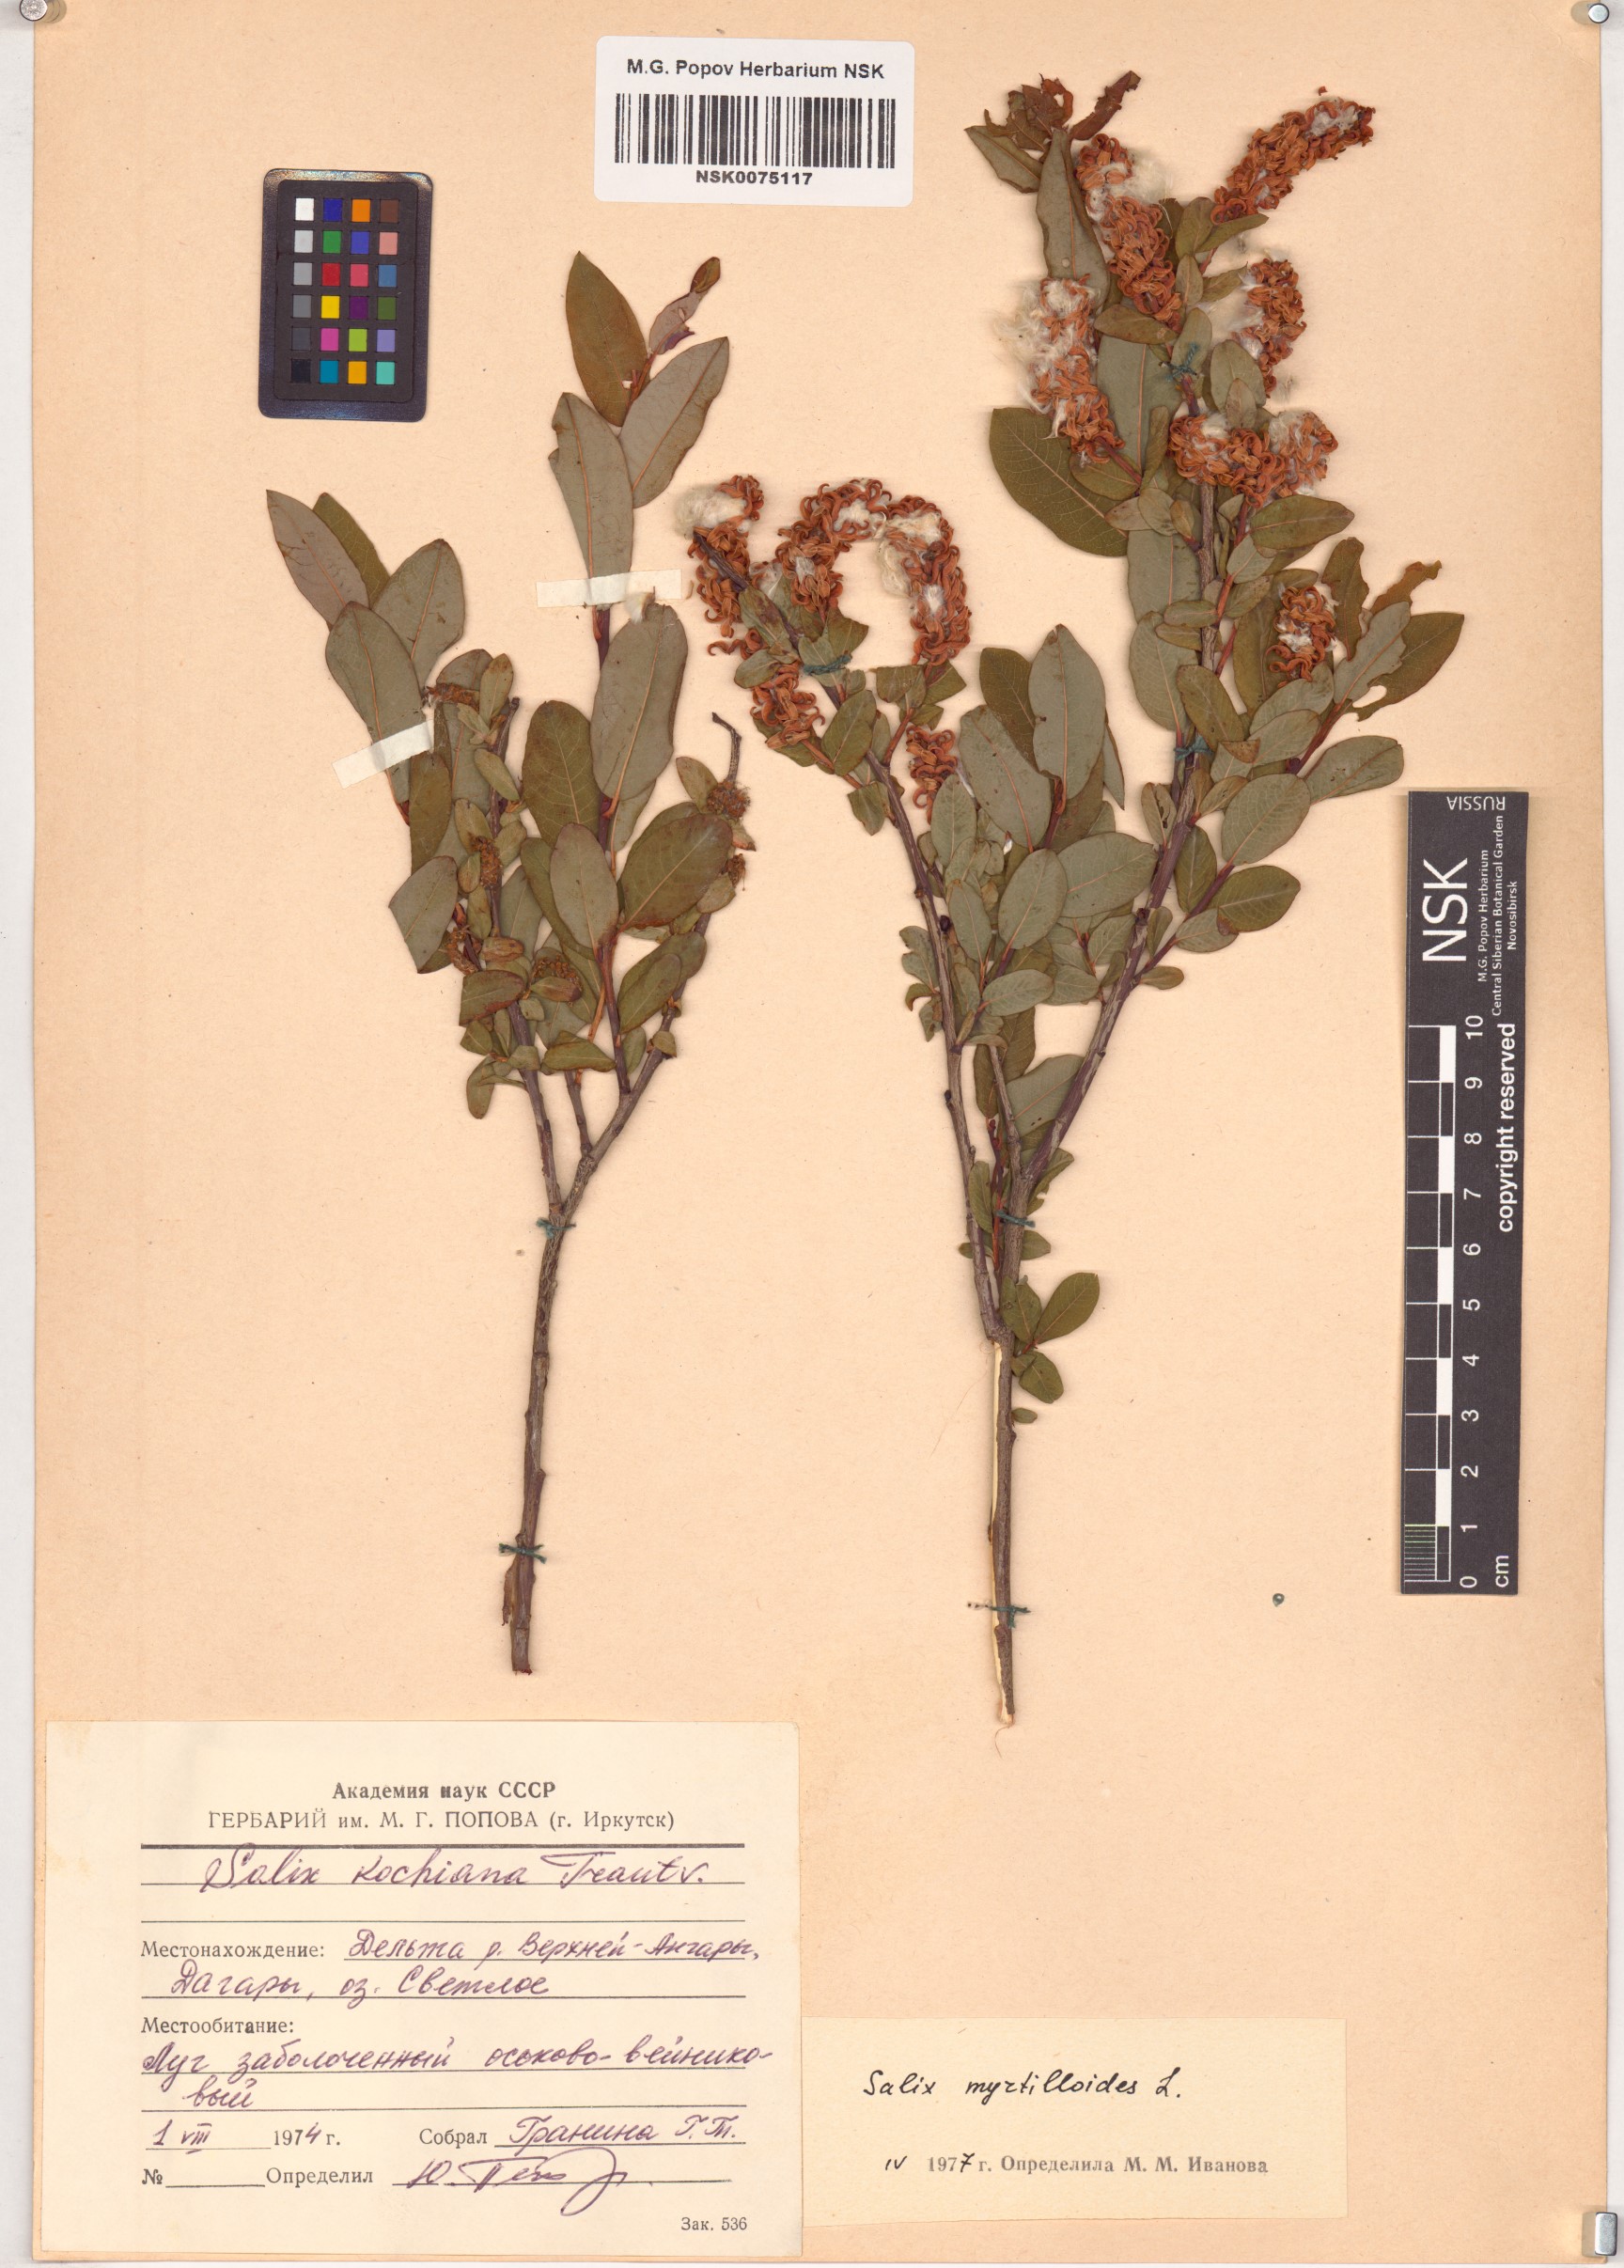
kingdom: Plantae
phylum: Tracheophyta
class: Magnoliopsida
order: Malpighiales
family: Salicaceae
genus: Salix
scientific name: Salix myrtilloides
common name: Myrtle-leaved willow
